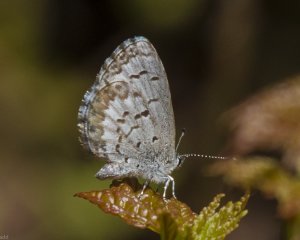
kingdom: Animalia
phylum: Arthropoda
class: Insecta
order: Lepidoptera
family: Lycaenidae
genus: Celastrina
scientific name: Celastrina lucia
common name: Northern Spring Azure
